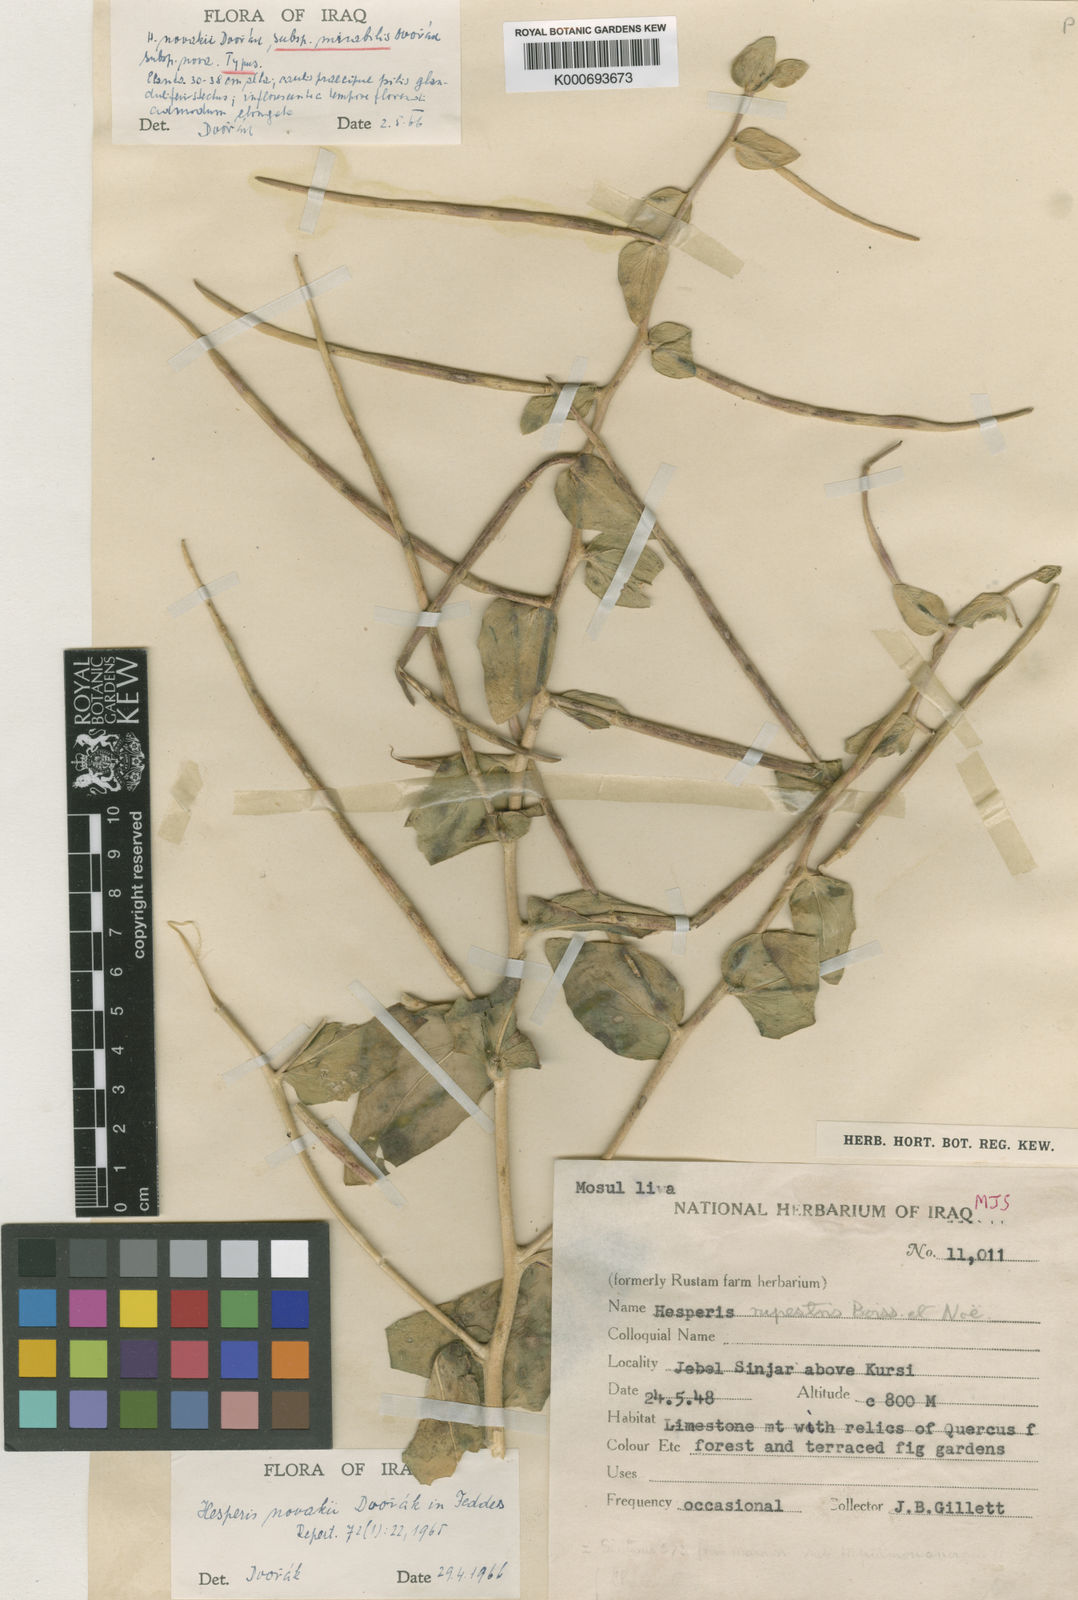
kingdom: Plantae
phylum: Tracheophyta
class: Magnoliopsida
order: Brassicales
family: Brassicaceae
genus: Hesperis
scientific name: Hesperis
